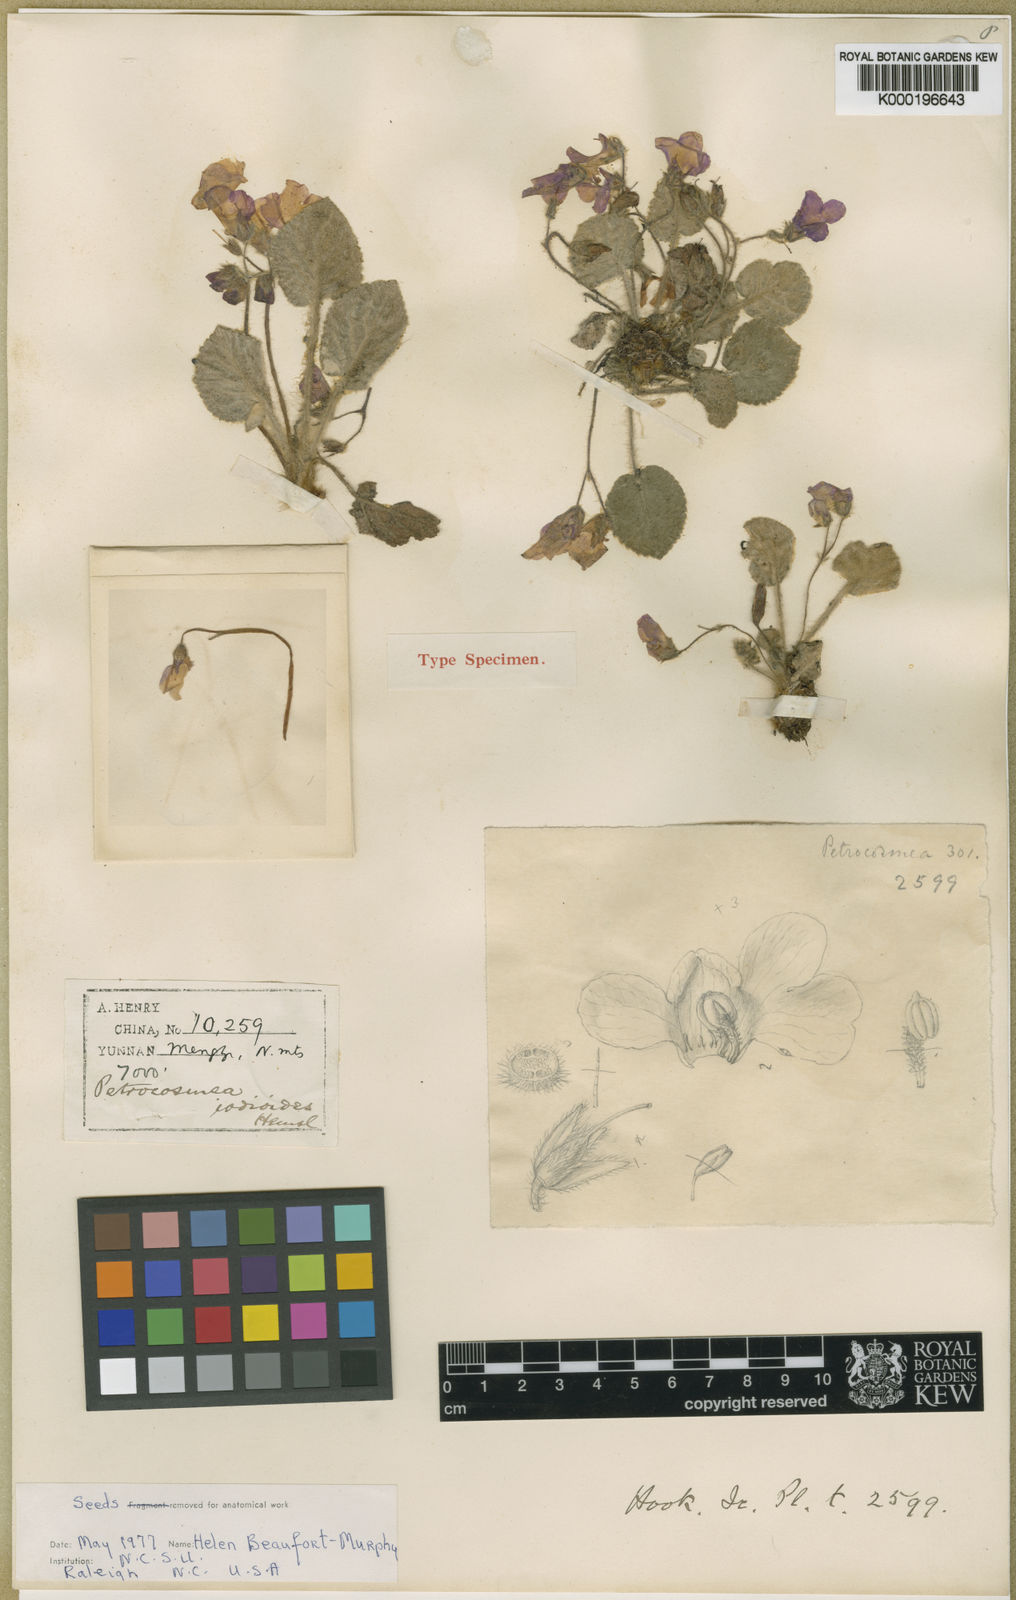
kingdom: Plantae
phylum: Tracheophyta
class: Magnoliopsida
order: Lamiales
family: Gesneriaceae
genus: Petrocosmea
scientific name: Petrocosmea iodioides
